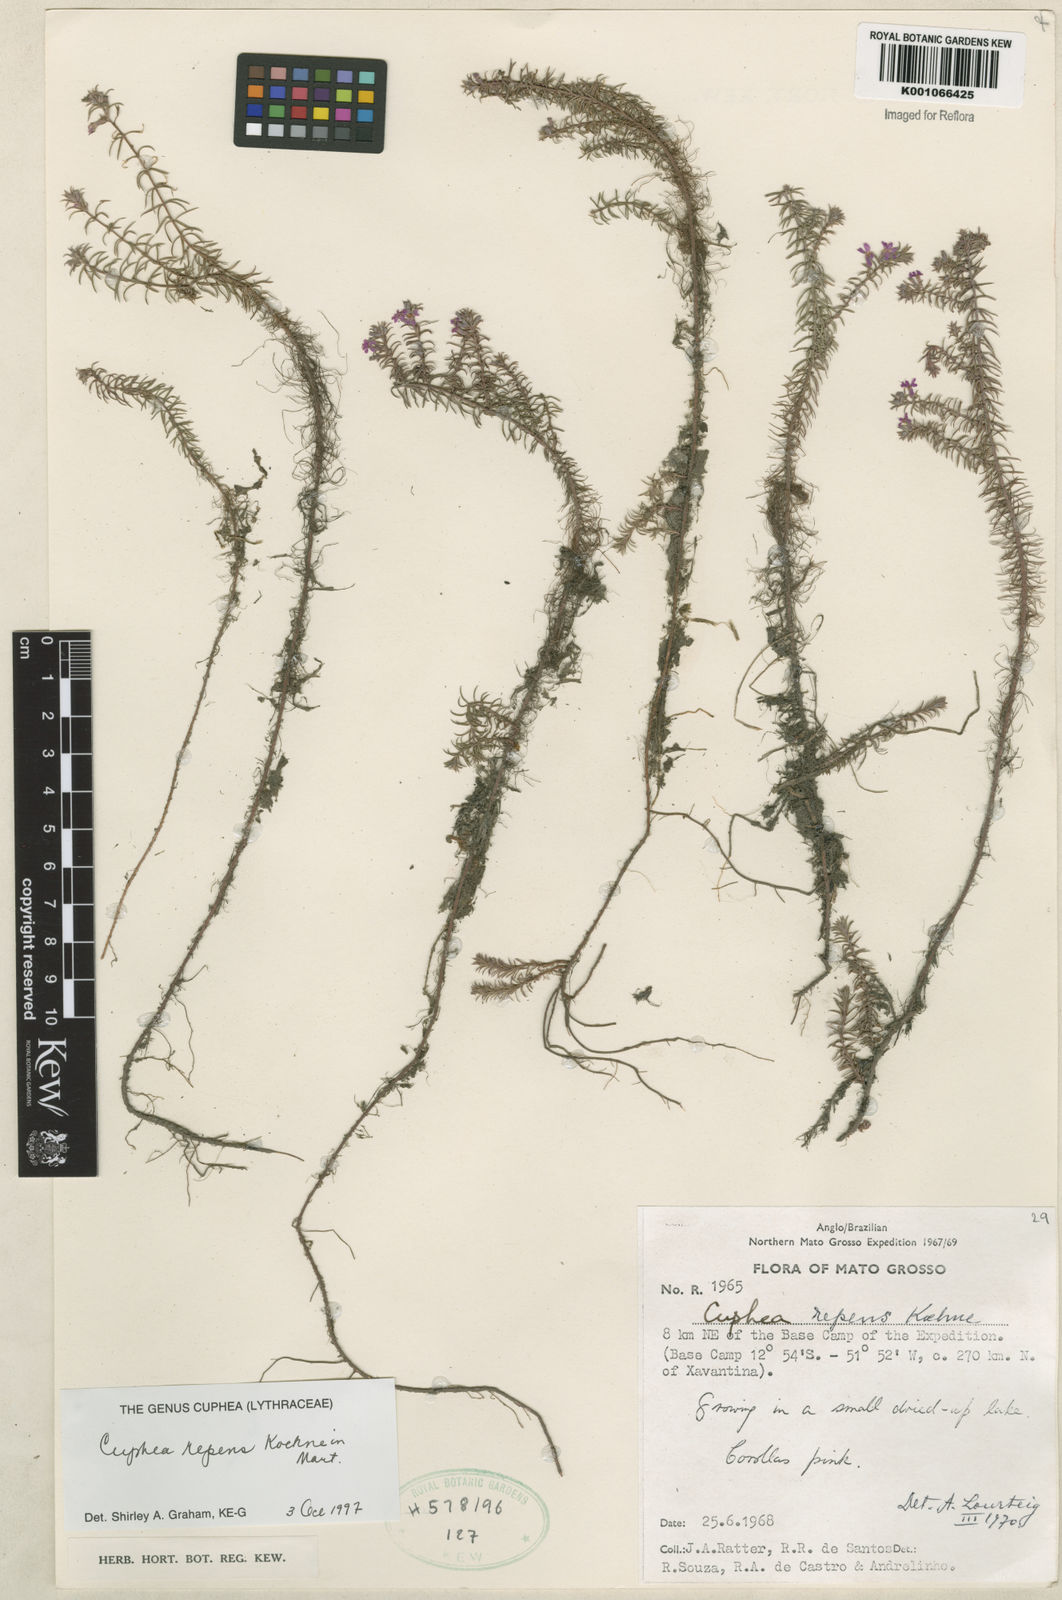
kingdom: Plantae
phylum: Tracheophyta
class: Magnoliopsida
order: Myrtales
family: Lythraceae
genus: Cuphea
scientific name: Cuphea repens
